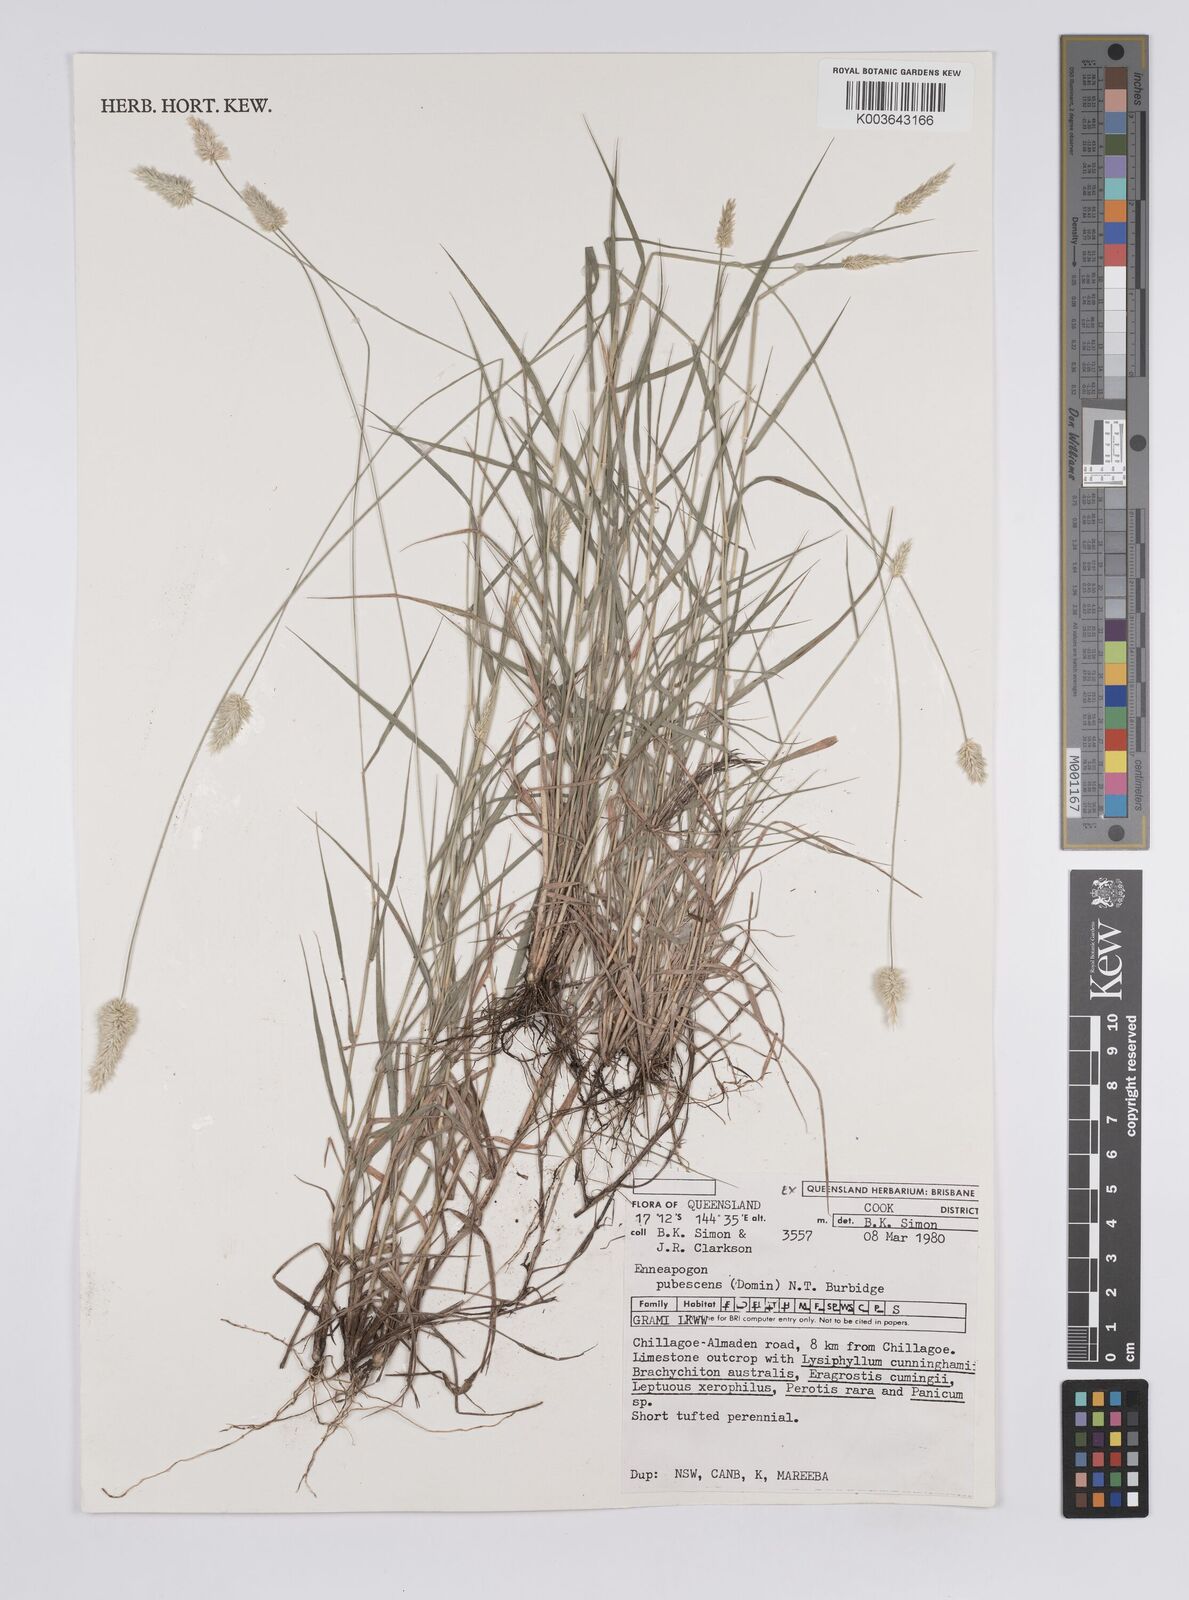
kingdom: Plantae
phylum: Tracheophyta
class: Liliopsida
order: Poales
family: Poaceae
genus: Enneapogon
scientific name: Enneapogon lindleyanus
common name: Conetop nineawn
